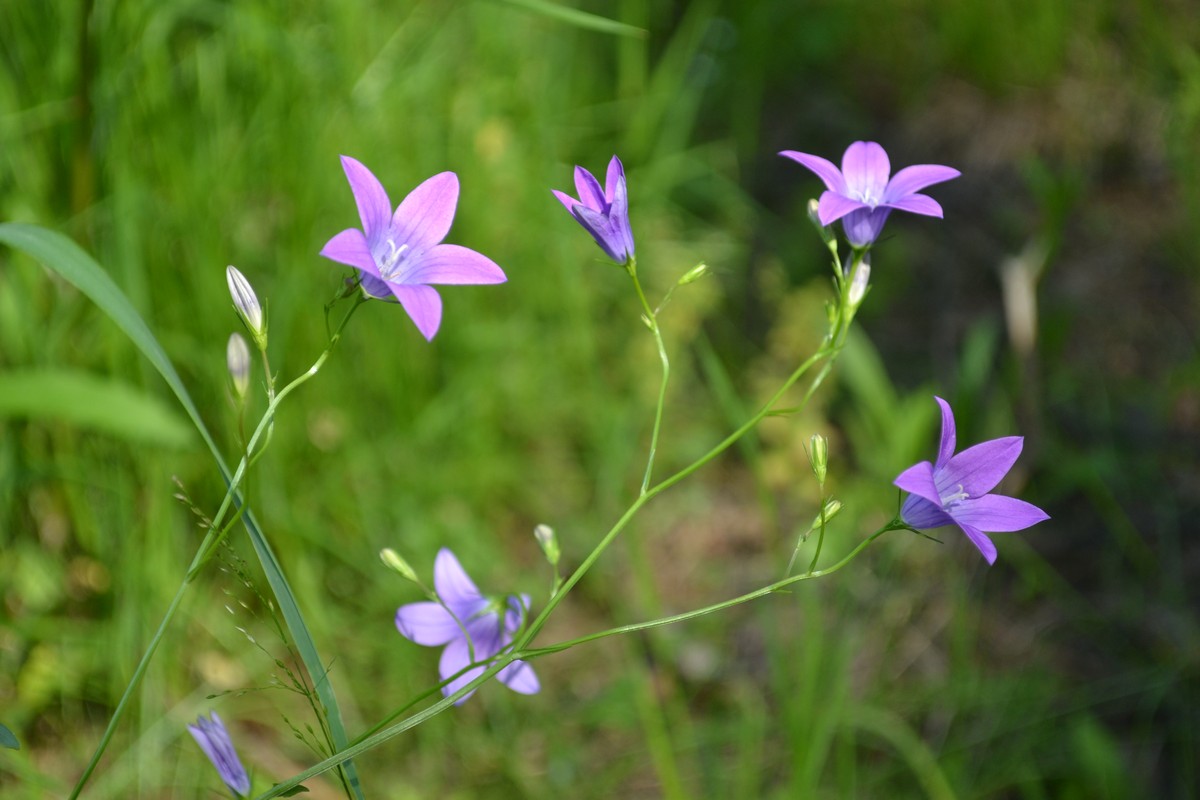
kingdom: Plantae
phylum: Tracheophyta
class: Magnoliopsida
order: Asterales
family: Campanulaceae
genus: Campanula
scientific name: Campanula patula
